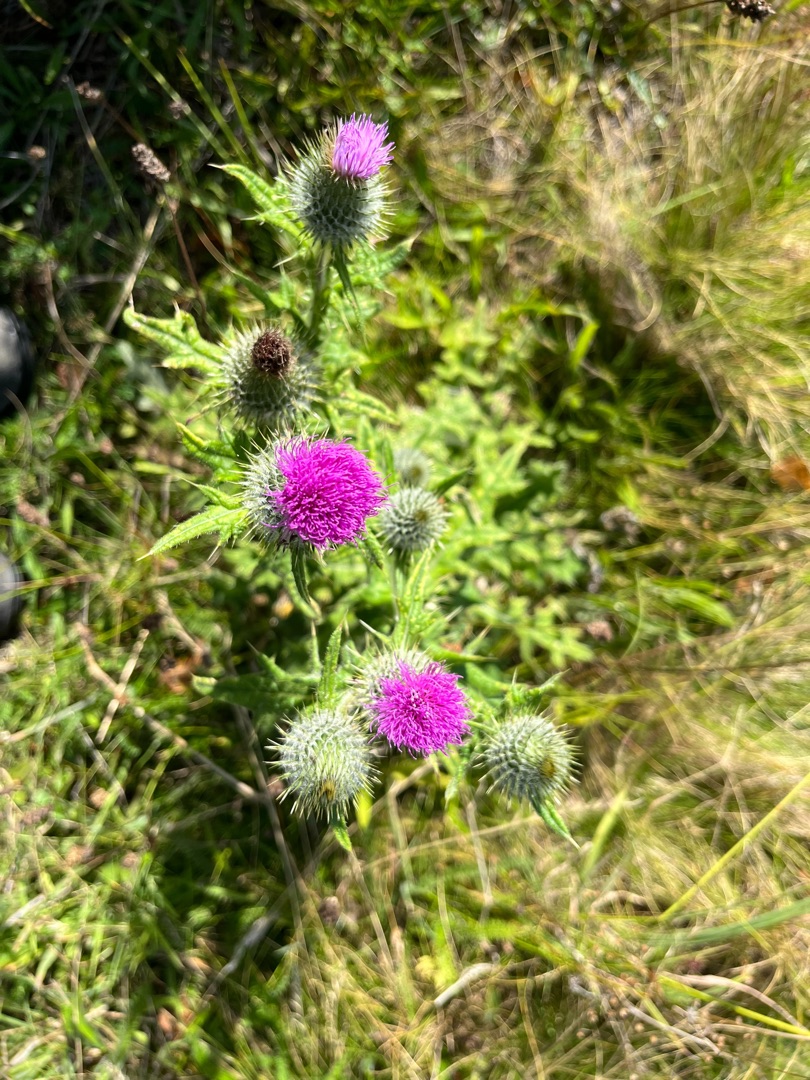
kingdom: Plantae
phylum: Tracheophyta
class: Magnoliopsida
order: Asterales
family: Asteraceae
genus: Cirsium
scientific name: Cirsium vulgare
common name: Horse-tidsel
